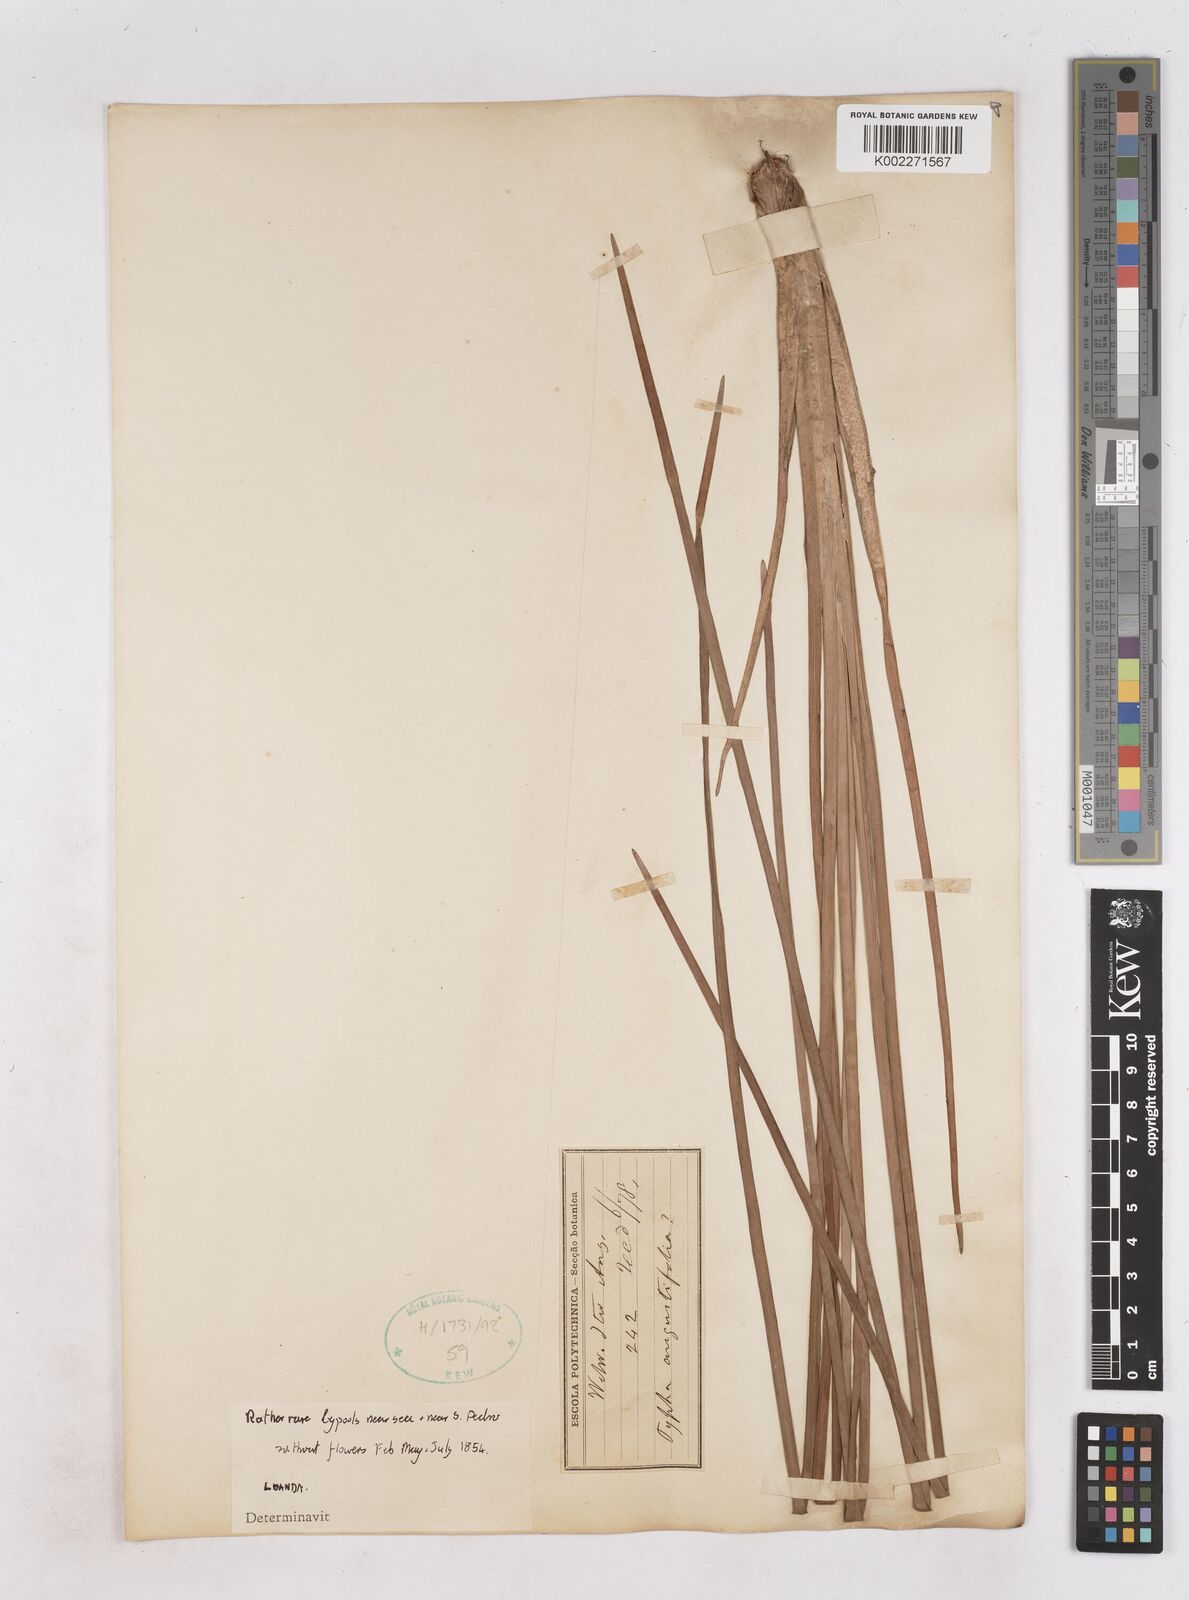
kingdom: Plantae
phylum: Tracheophyta
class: Liliopsida
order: Poales
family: Typhaceae
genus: Typha
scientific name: Typha
